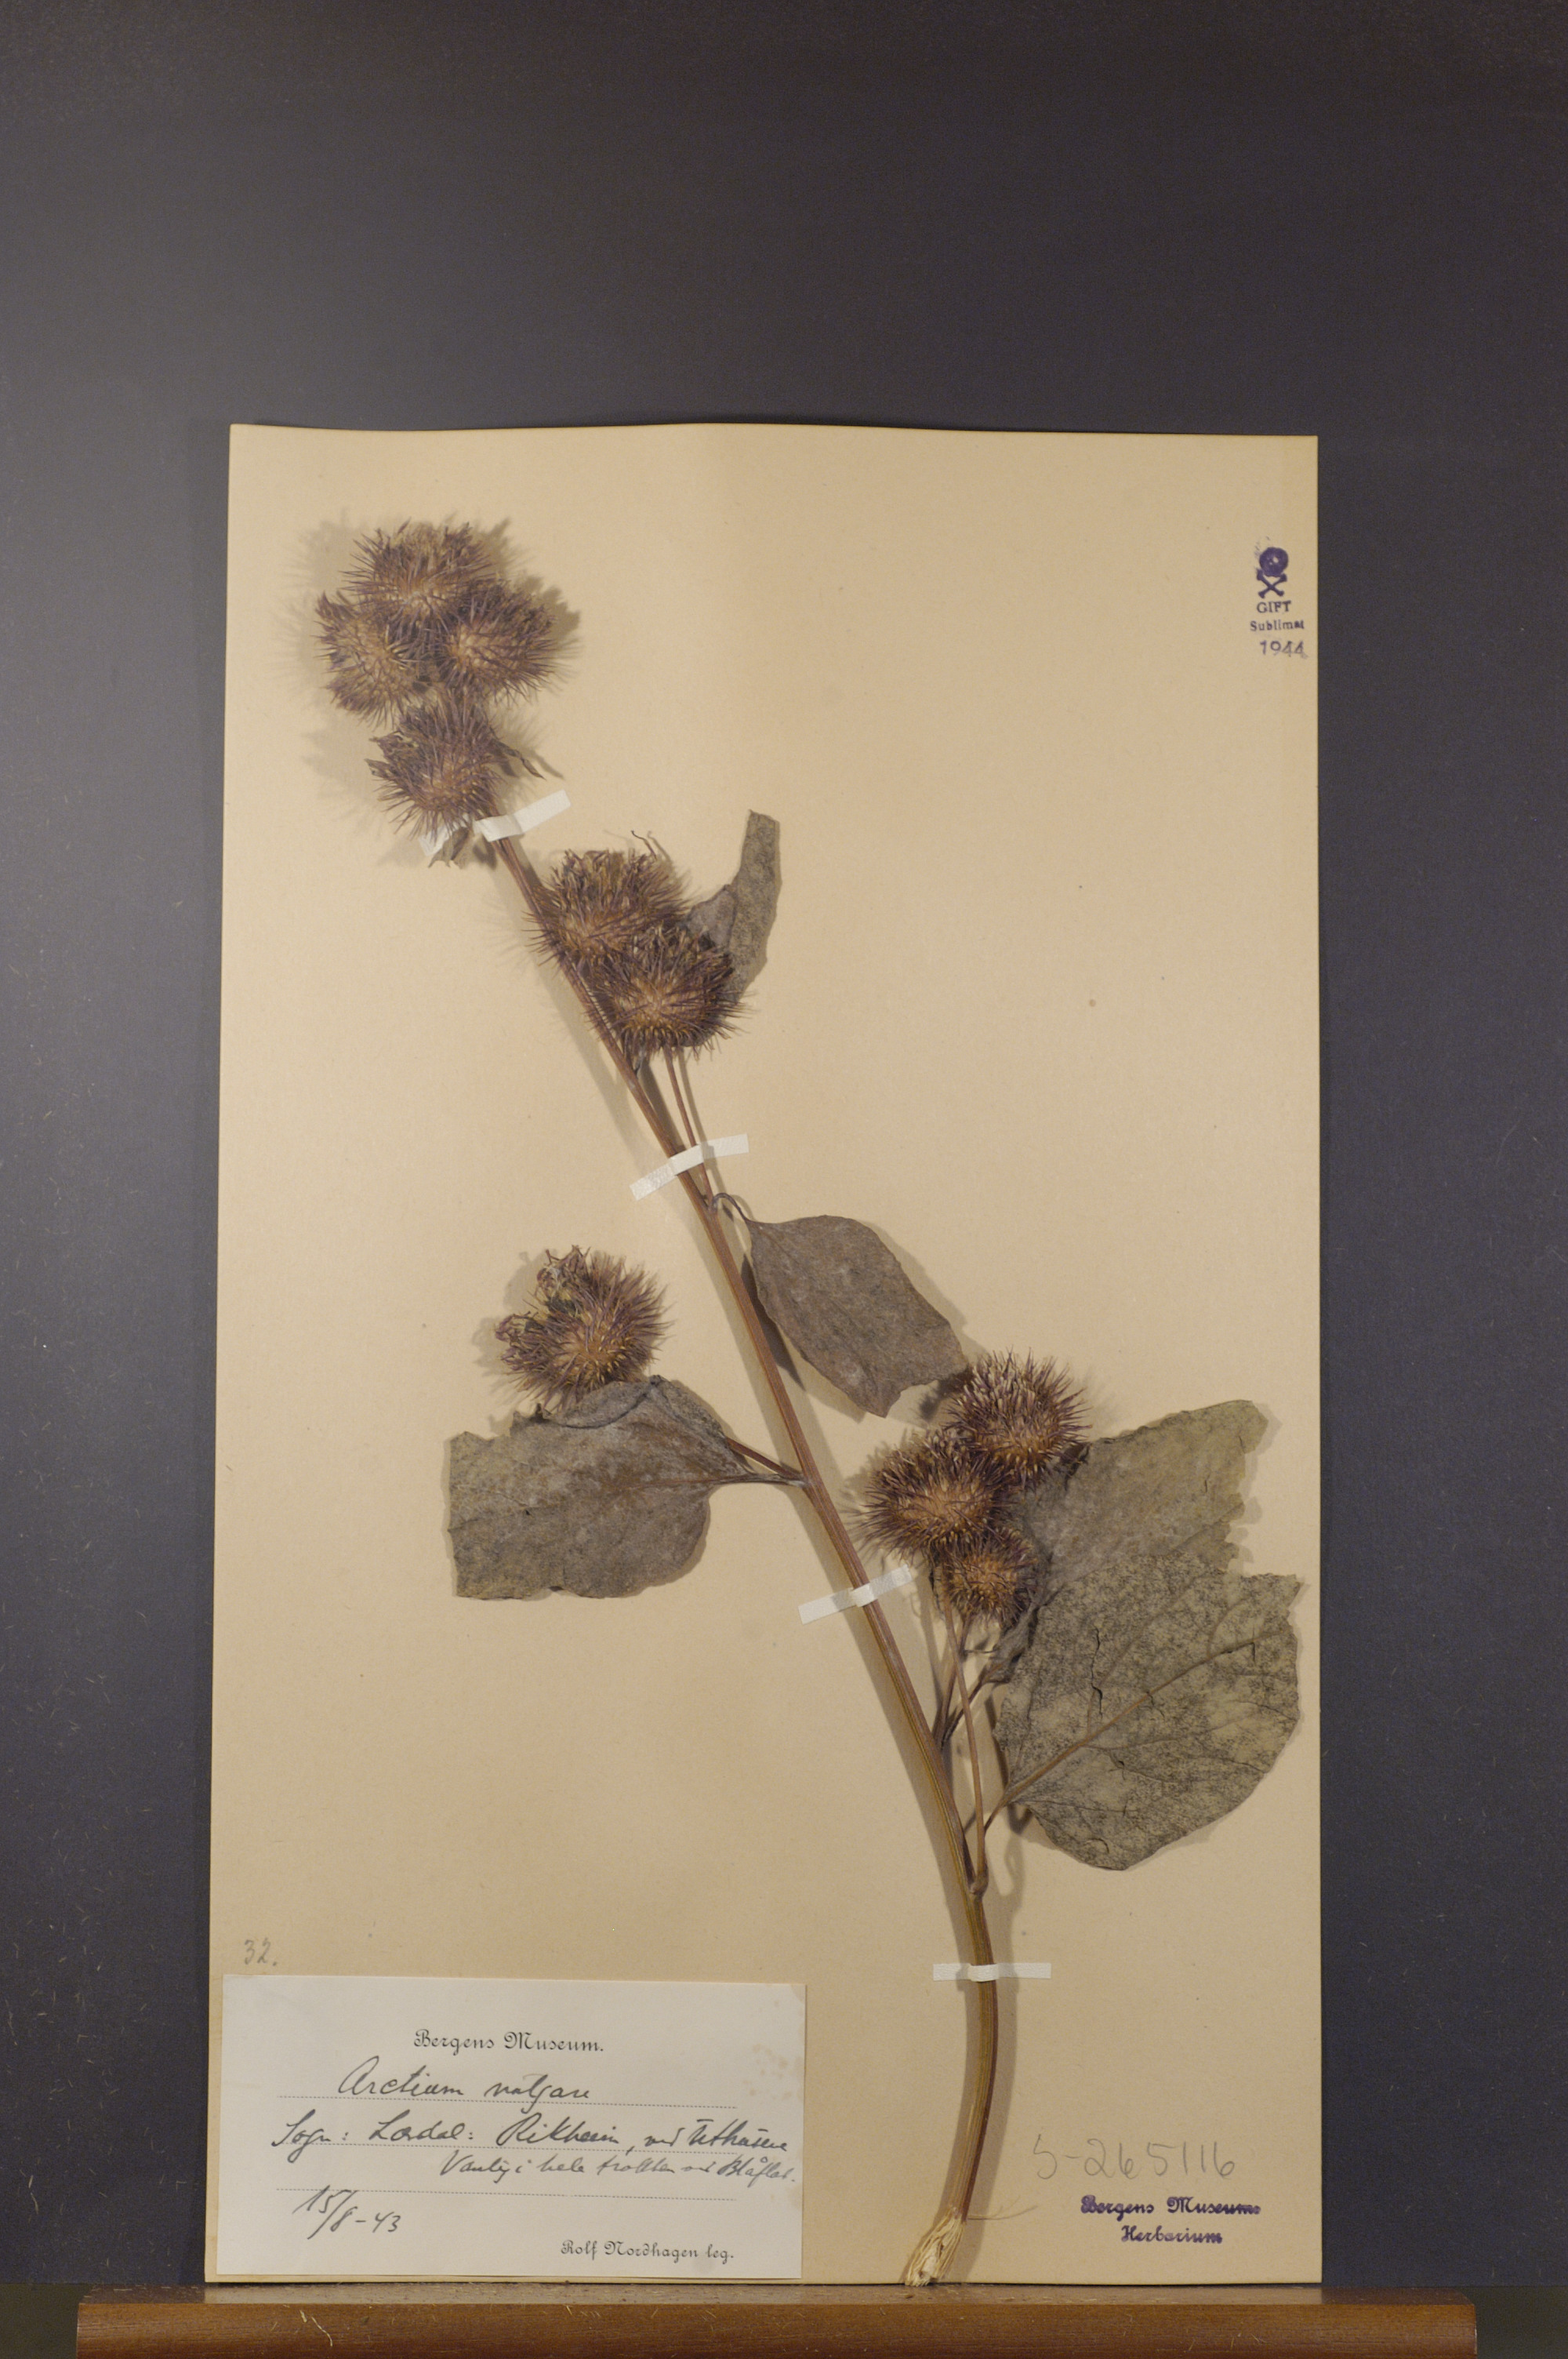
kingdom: Plantae
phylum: Tracheophyta
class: Magnoliopsida
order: Asterales
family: Asteraceae
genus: Arctium
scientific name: Arctium lappa
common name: Greater burdock
